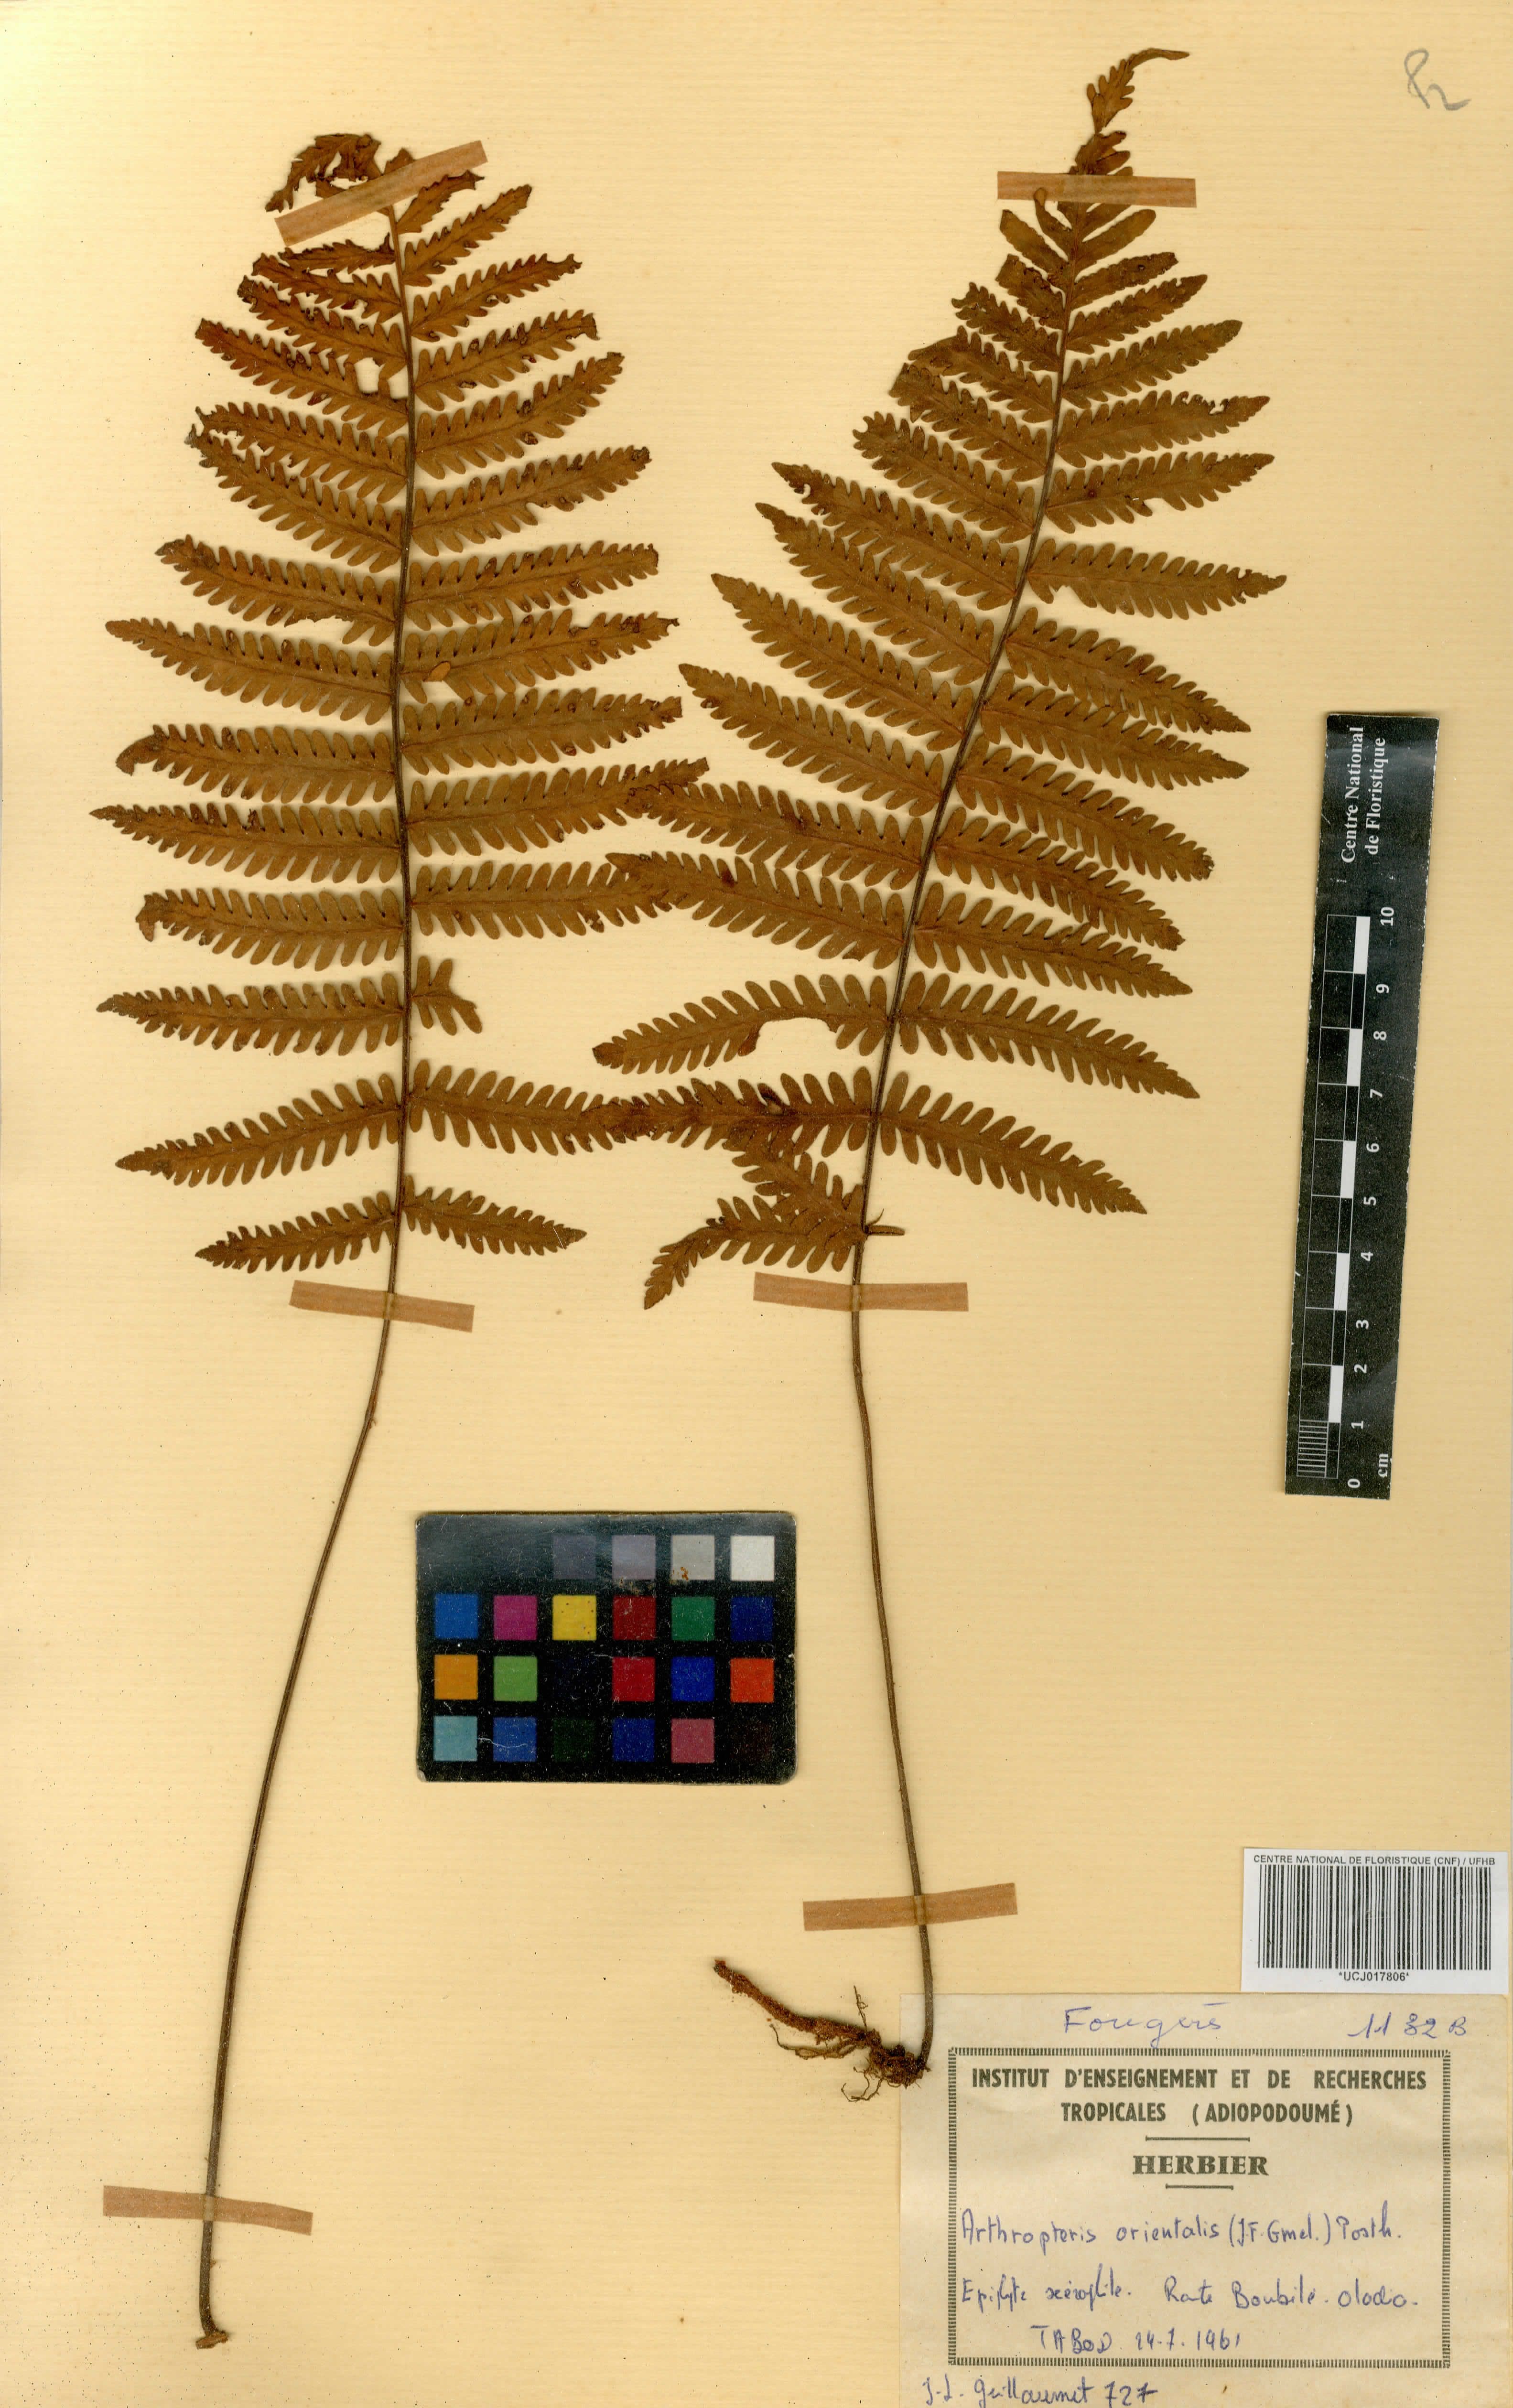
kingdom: Plantae
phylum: Tracheophyta
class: Polypodiopsida
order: Polypodiales
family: Tectariaceae
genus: Arthropteris
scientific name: Arthropteris orientalis
